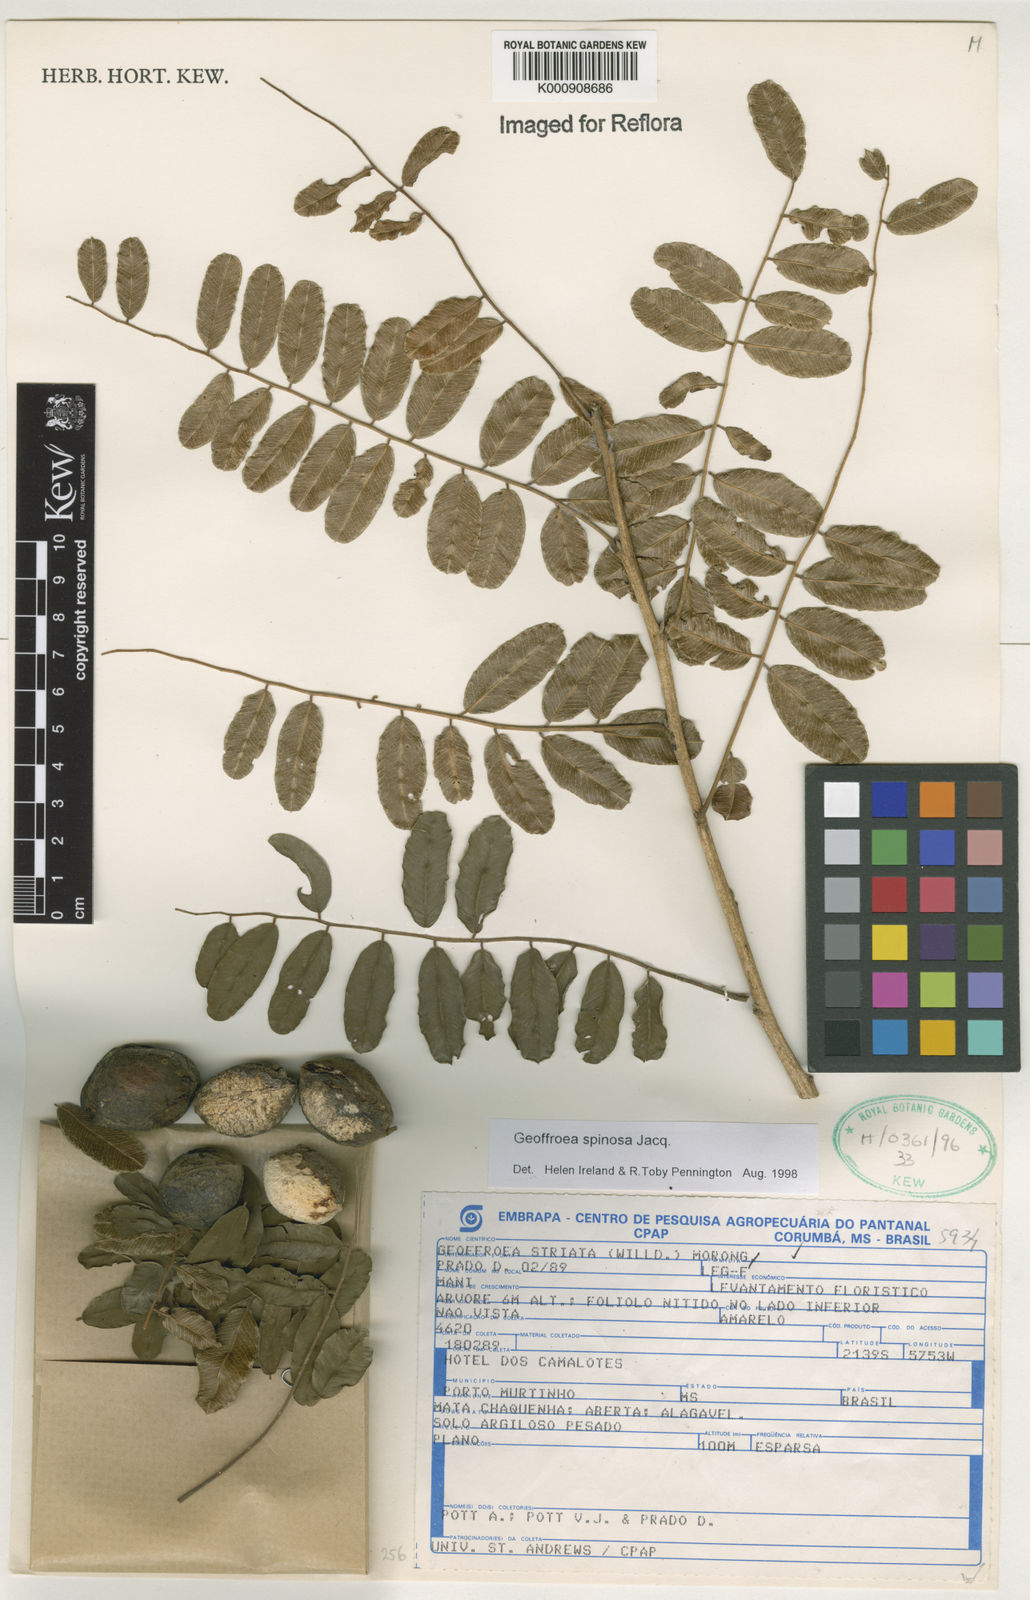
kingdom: Plantae
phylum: Tracheophyta
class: Magnoliopsida
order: Fabales
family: Fabaceae
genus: Geoffroea
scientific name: Geoffroea spinosa
